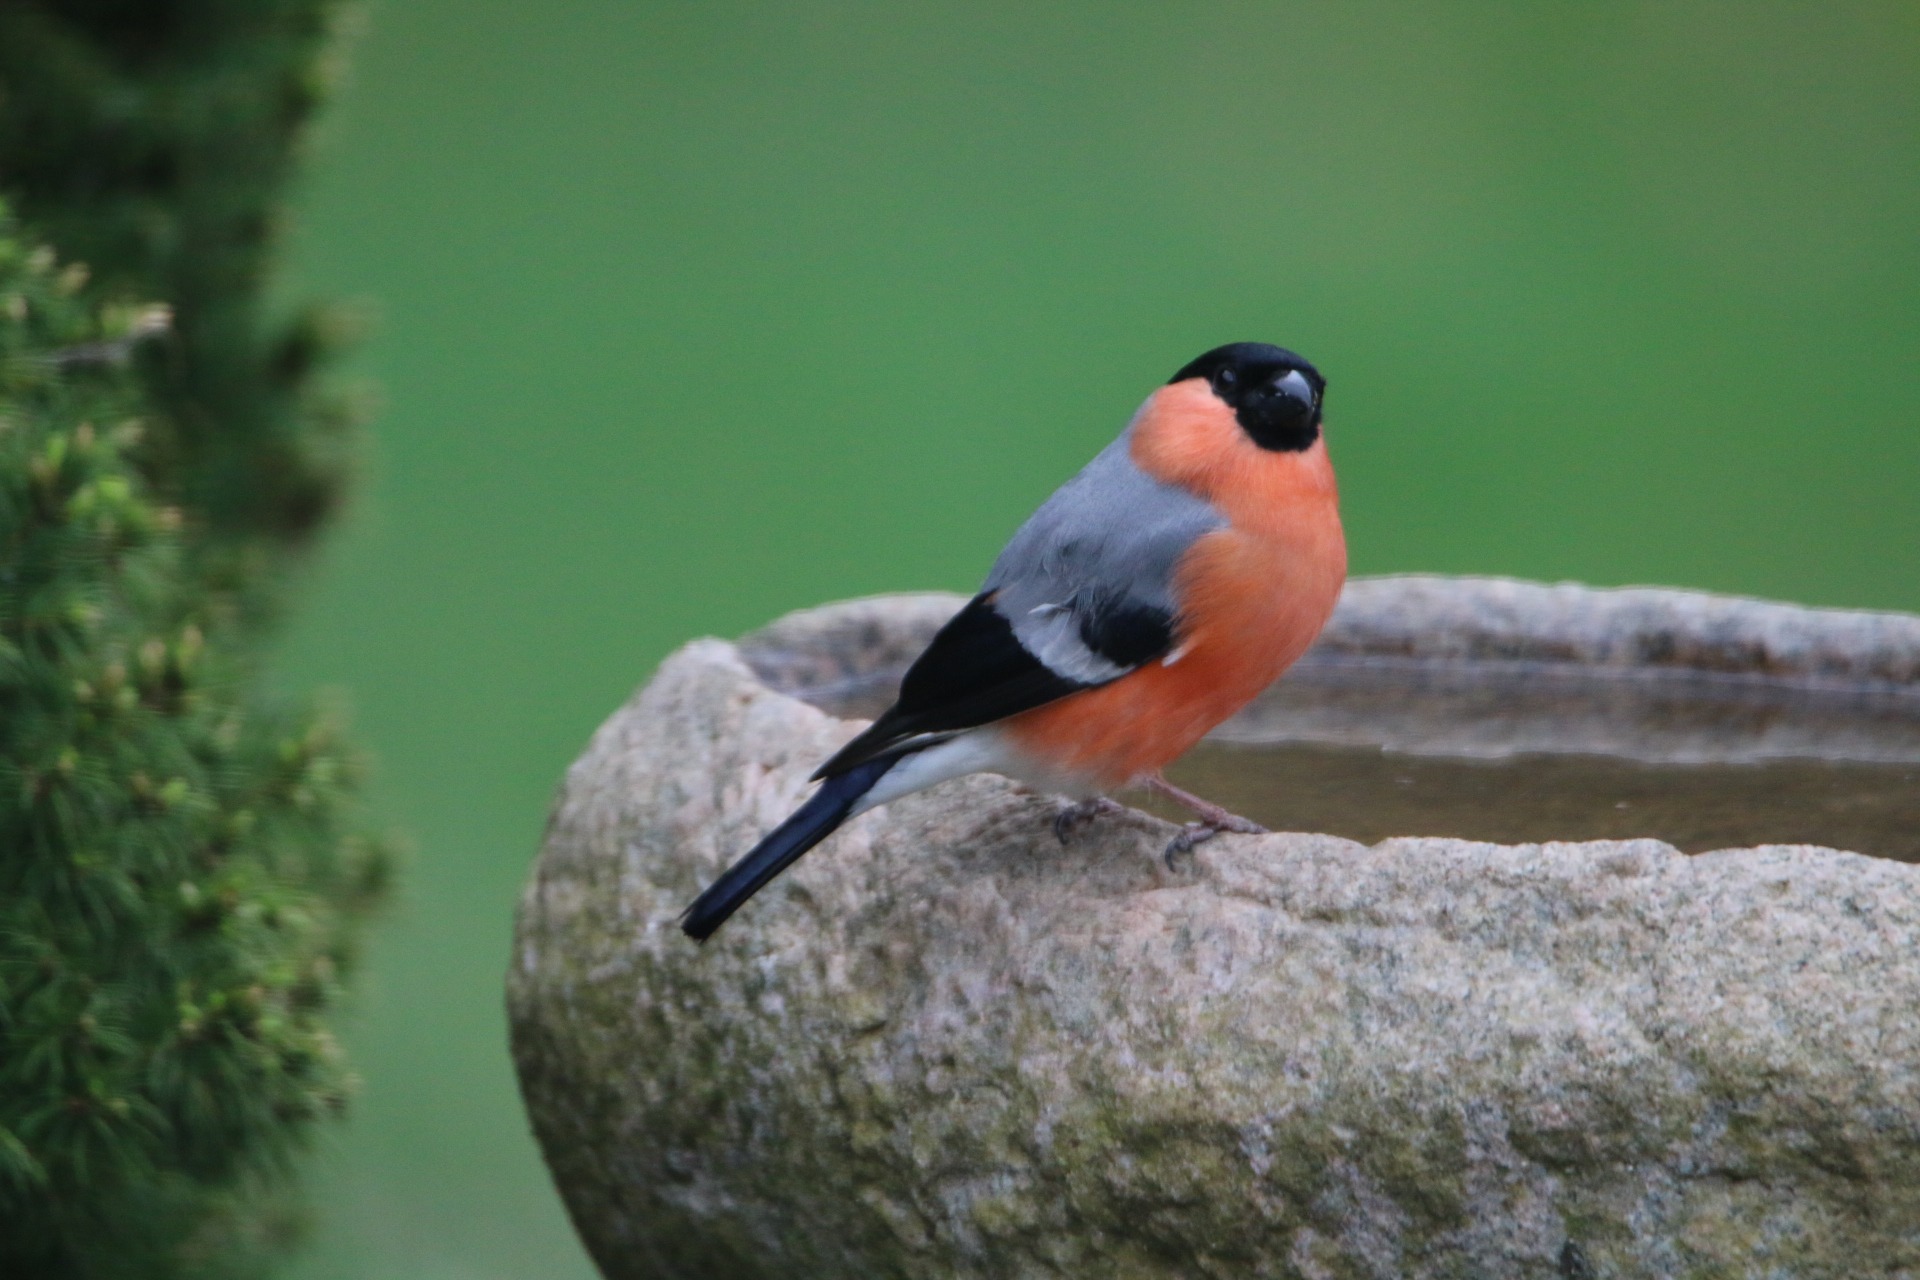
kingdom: Animalia
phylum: Chordata
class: Aves
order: Passeriformes
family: Fringillidae
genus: Pyrrhula
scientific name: Pyrrhula pyrrhula
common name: Dompap
